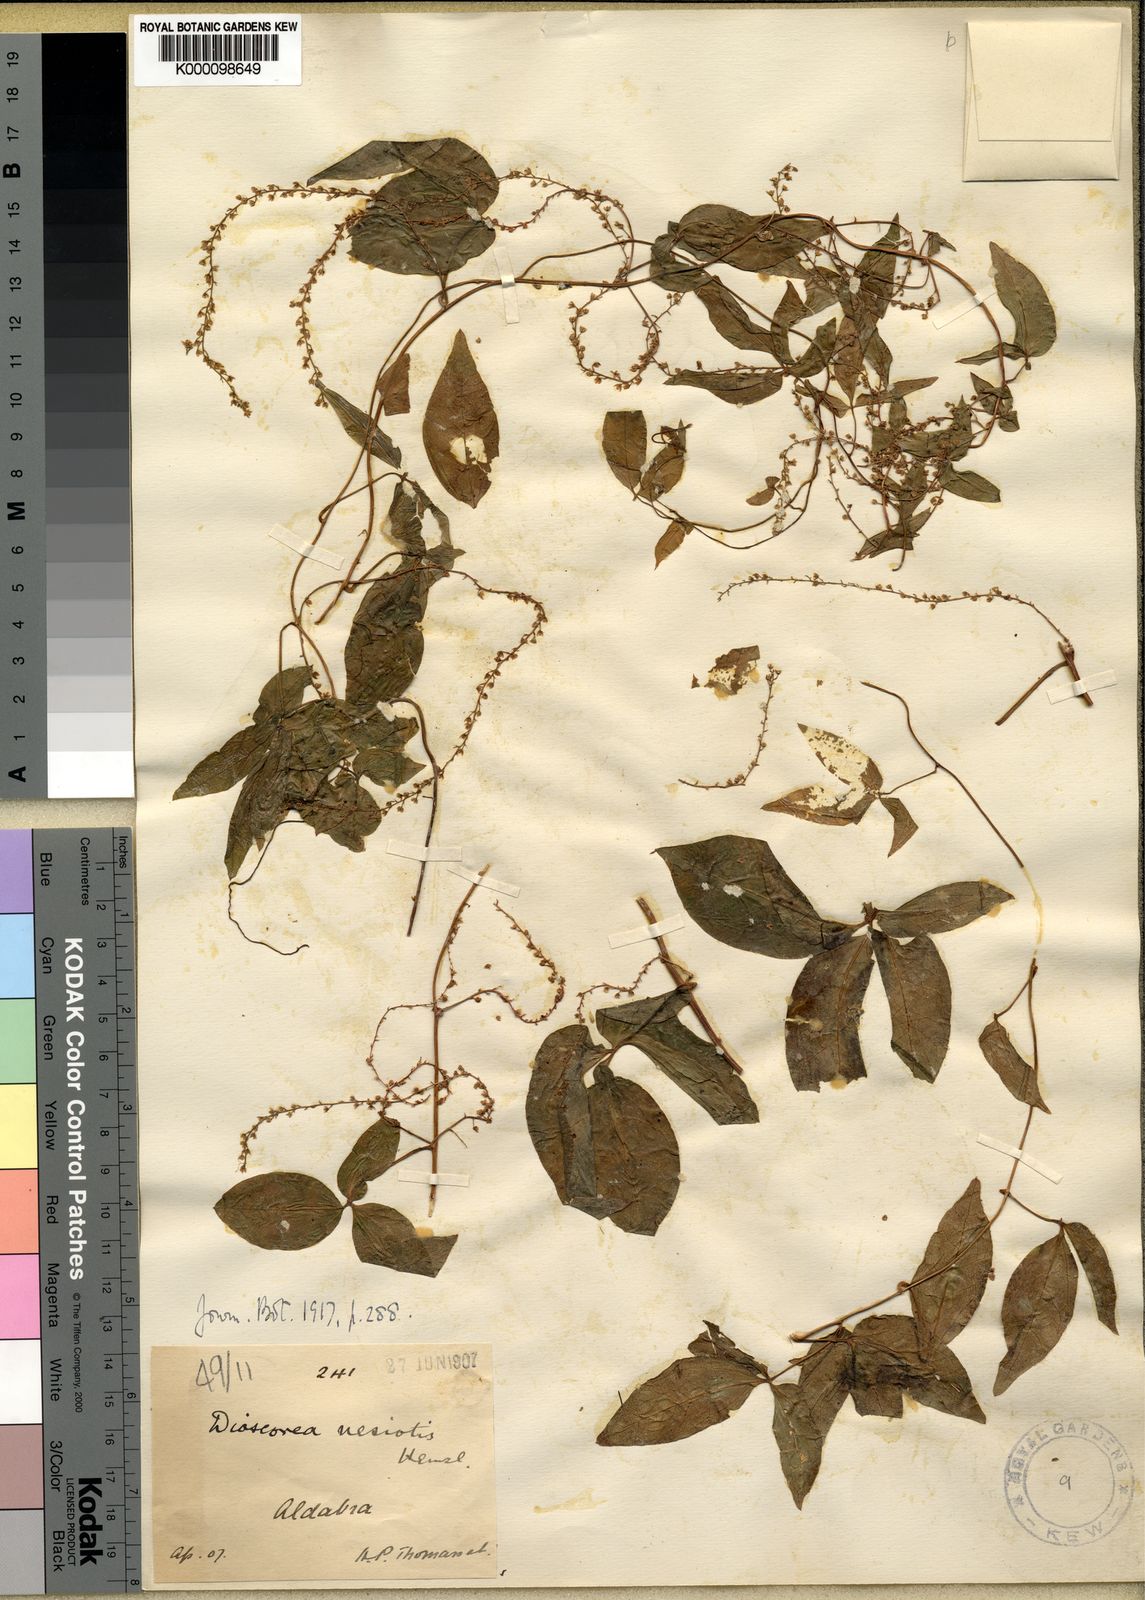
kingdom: Plantae
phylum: Tracheophyta
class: Liliopsida
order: Dioscoreales
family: Dioscoreaceae
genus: Dioscorea
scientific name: Dioscorea bemarivensis
